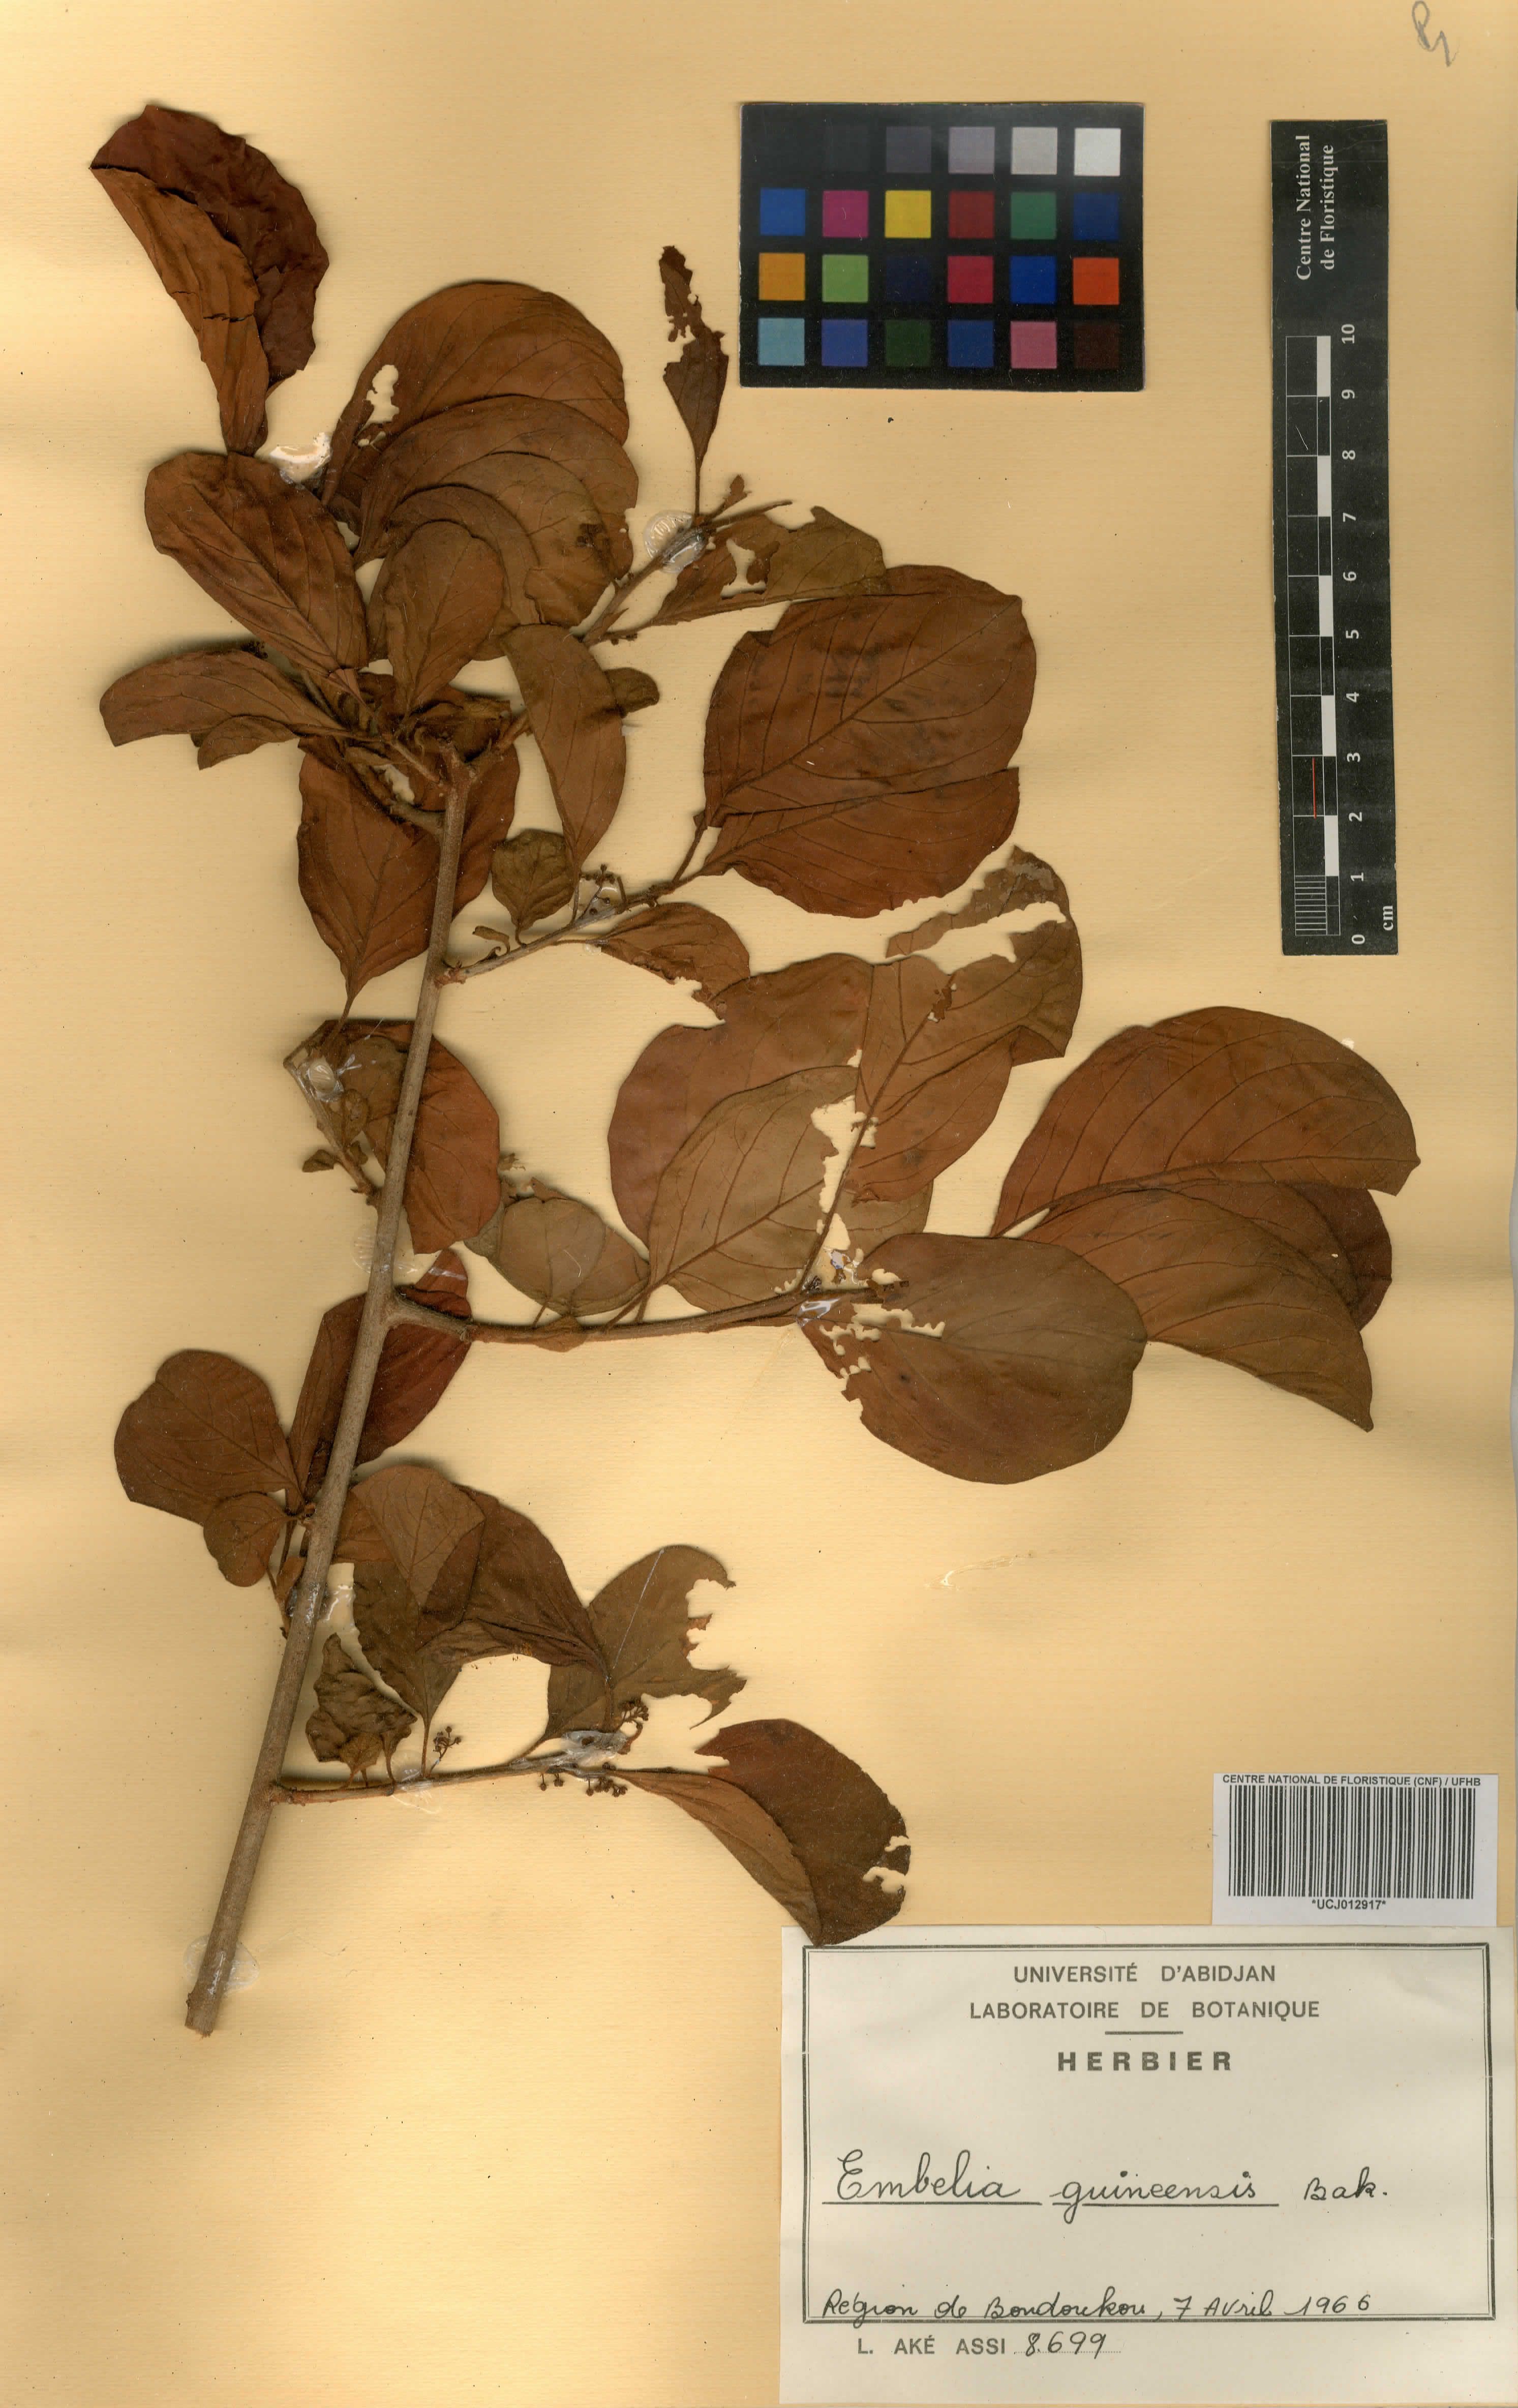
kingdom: Plantae
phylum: Tracheophyta
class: Magnoliopsida
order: Ericales
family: Primulaceae
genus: Embelia
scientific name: Embelia djalonensis
